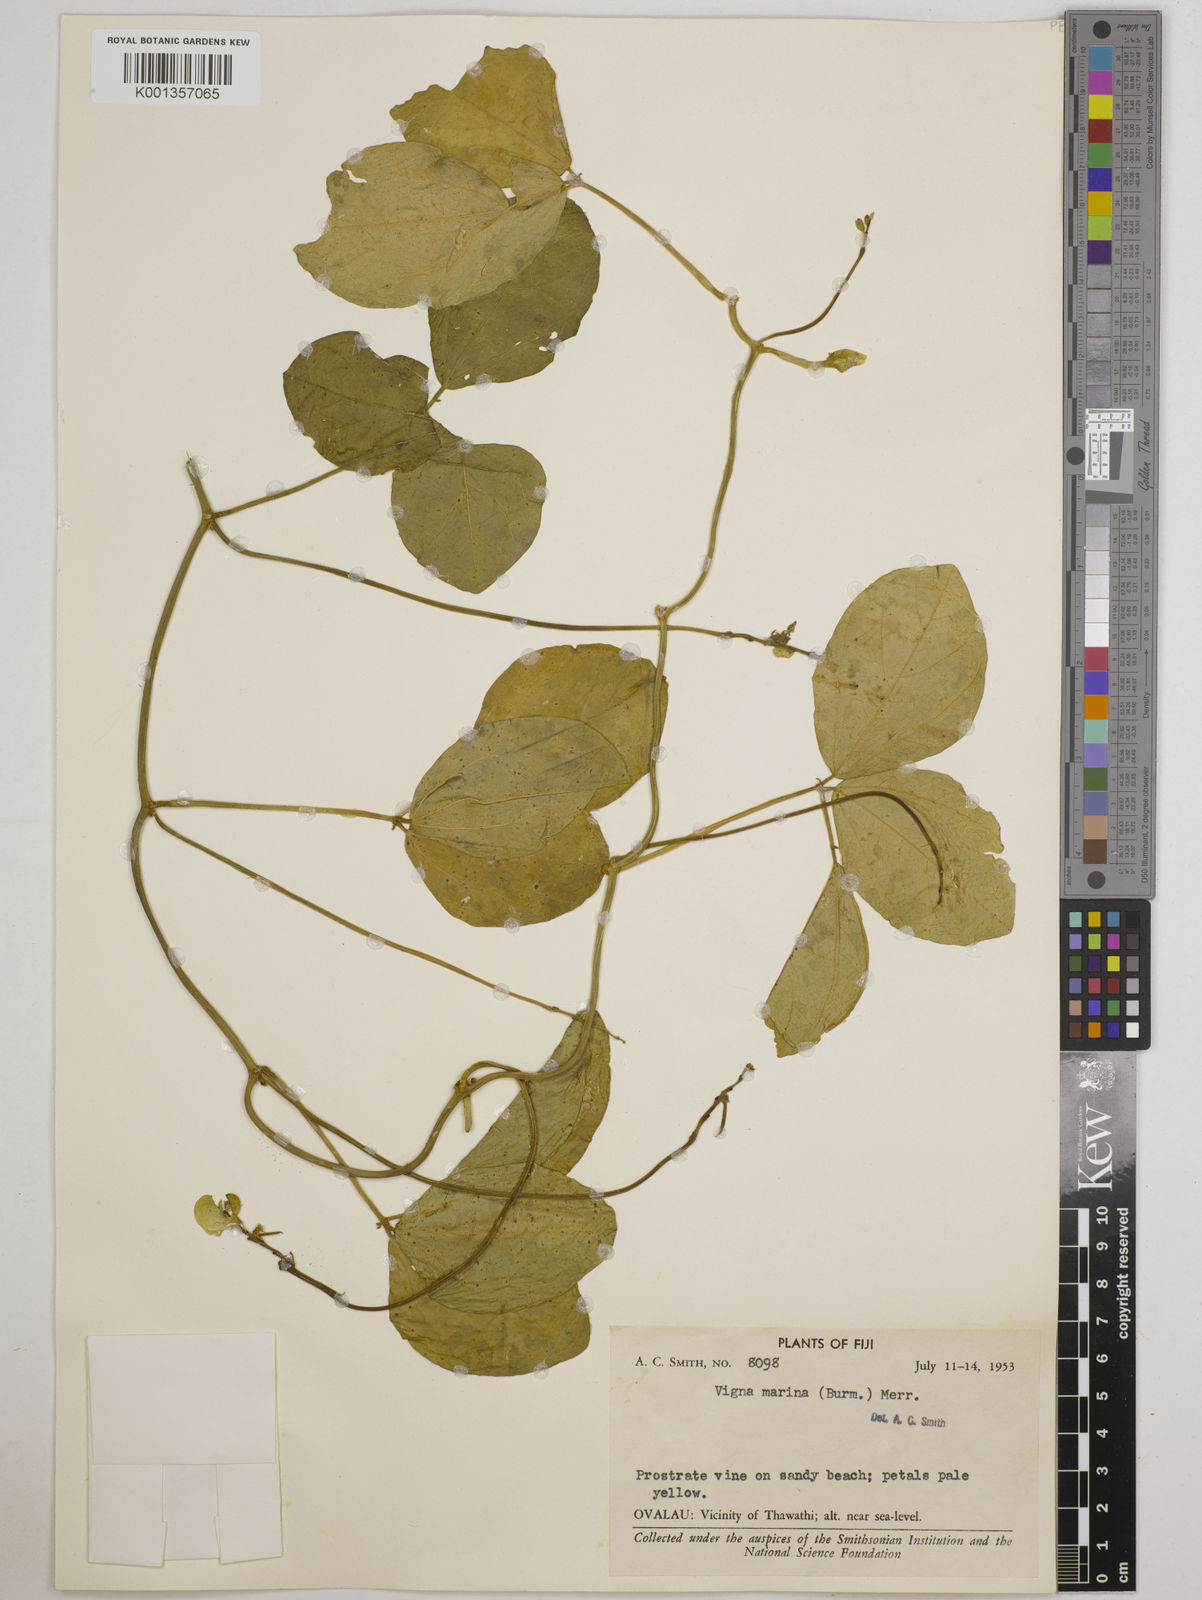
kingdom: Plantae
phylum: Tracheophyta
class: Magnoliopsida
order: Fabales
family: Fabaceae
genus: Vigna
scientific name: Vigna marina
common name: Dune-bean
